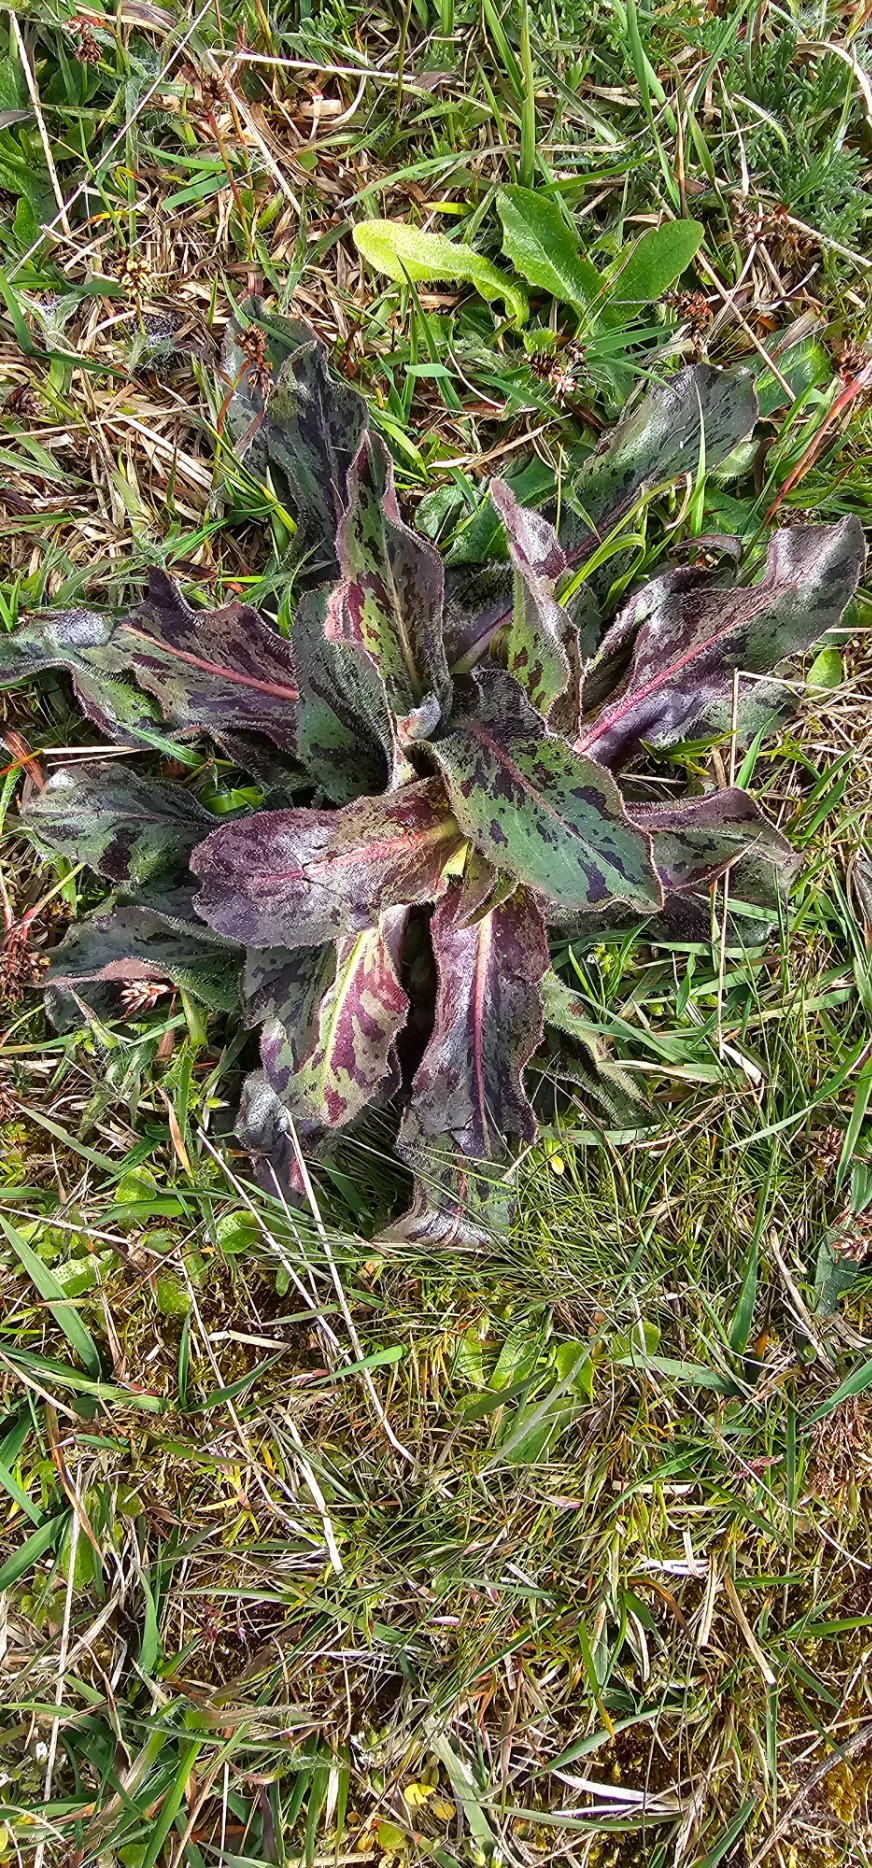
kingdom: Plantae
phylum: Tracheophyta
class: Magnoliopsida
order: Asterales
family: Asteraceae
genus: Trommsdorffia
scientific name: Trommsdorffia maculata
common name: Plettet kongepen
